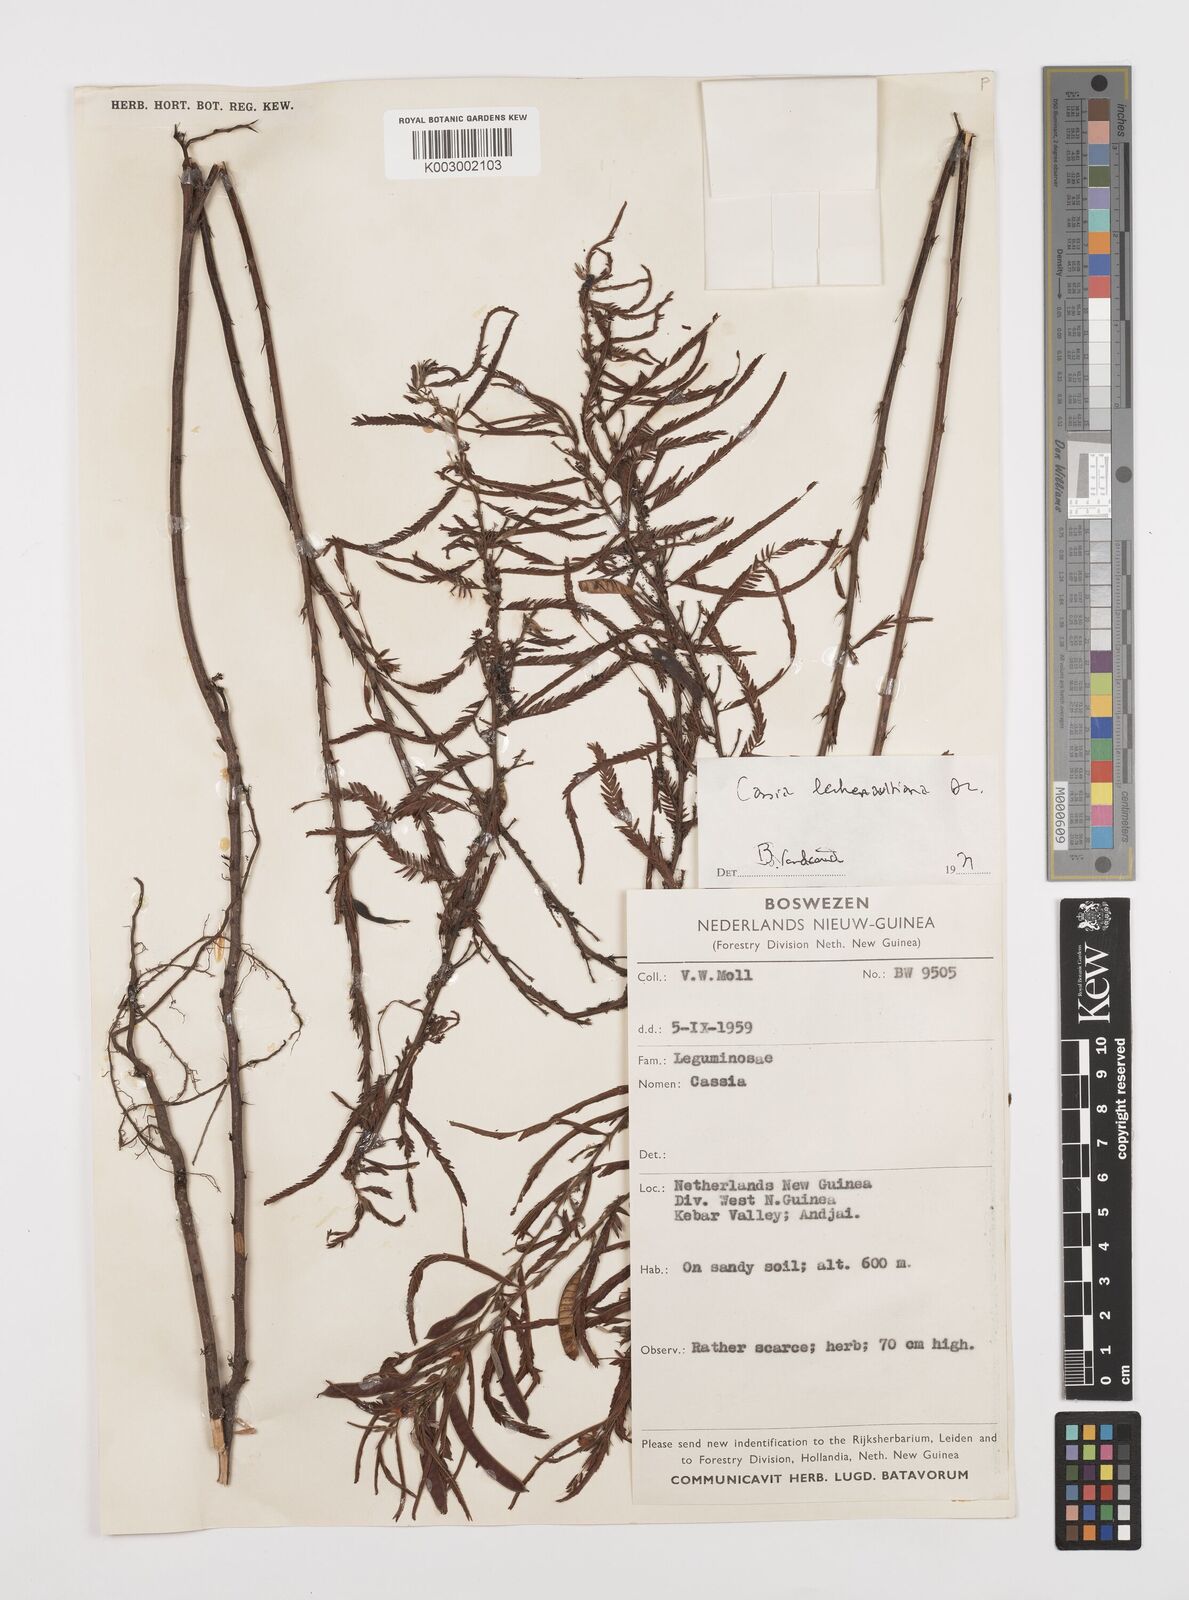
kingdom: Plantae
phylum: Tracheophyta
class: Magnoliopsida
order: Fabales
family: Fabaceae
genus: Chamaecrista
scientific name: Chamaecrista mimosoides
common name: Fish-bone cassia
